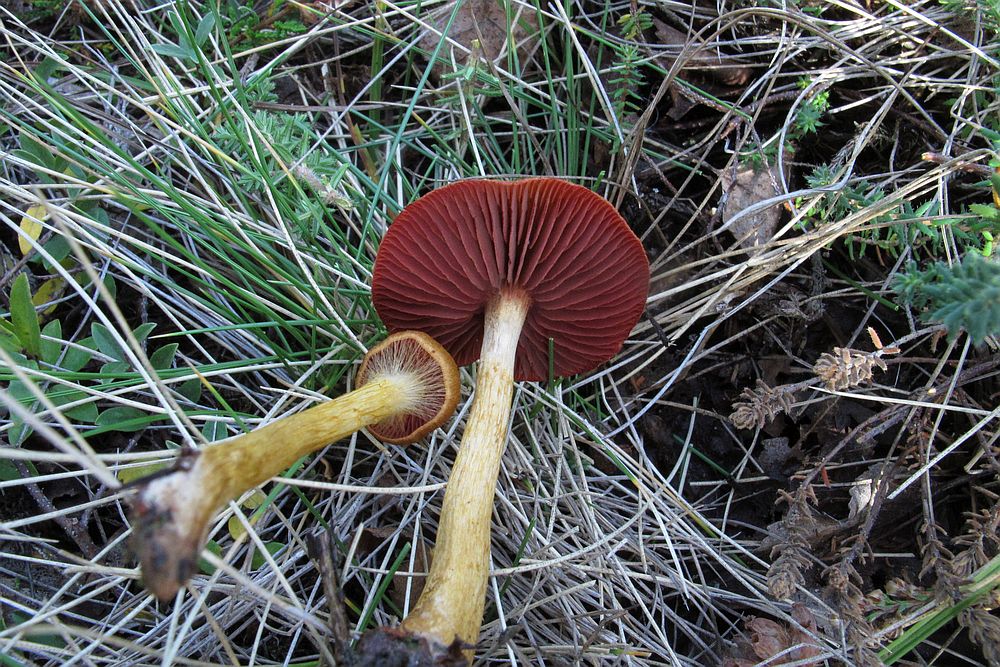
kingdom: Fungi
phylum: Basidiomycota
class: Agaricomycetes
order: Agaricales
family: Cortinariaceae
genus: Cortinarius
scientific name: Cortinarius
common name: cinnoberbladet slørhat
